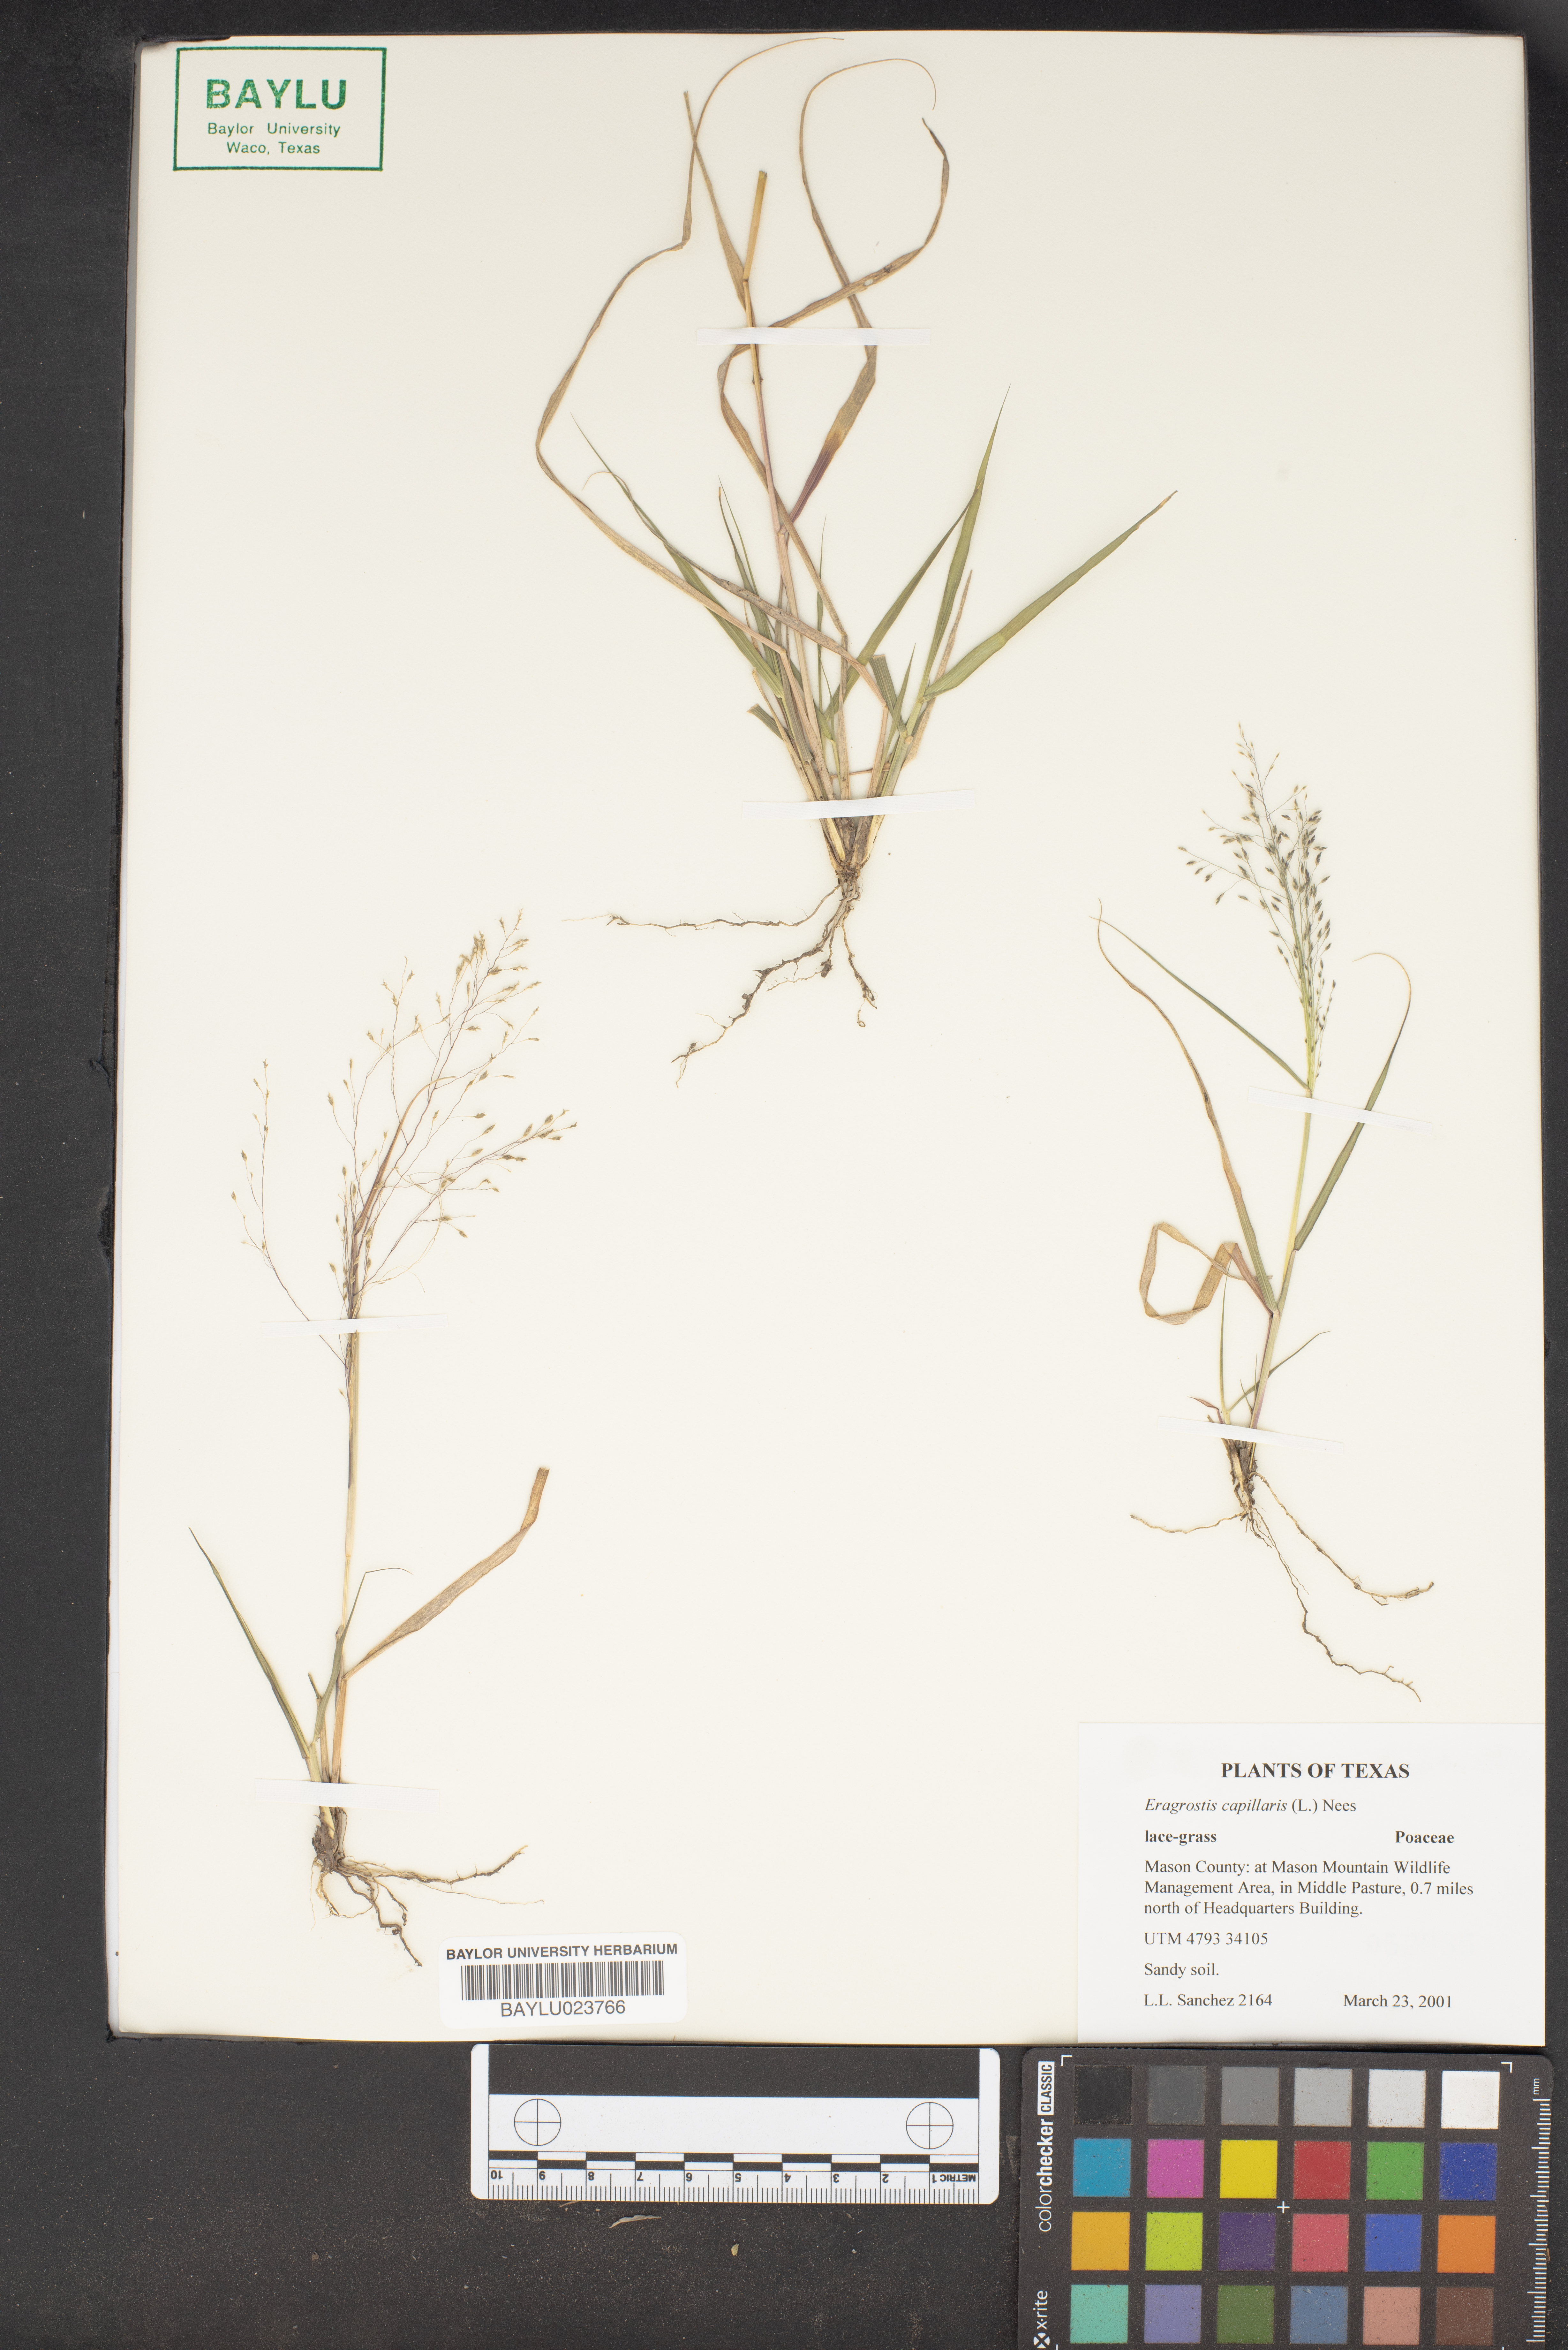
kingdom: Plantae
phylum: Tracheophyta
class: Liliopsida
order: Poales
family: Poaceae
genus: Eragrostis
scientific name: Eragrostis capillaris
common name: Hair-like lovegrass
